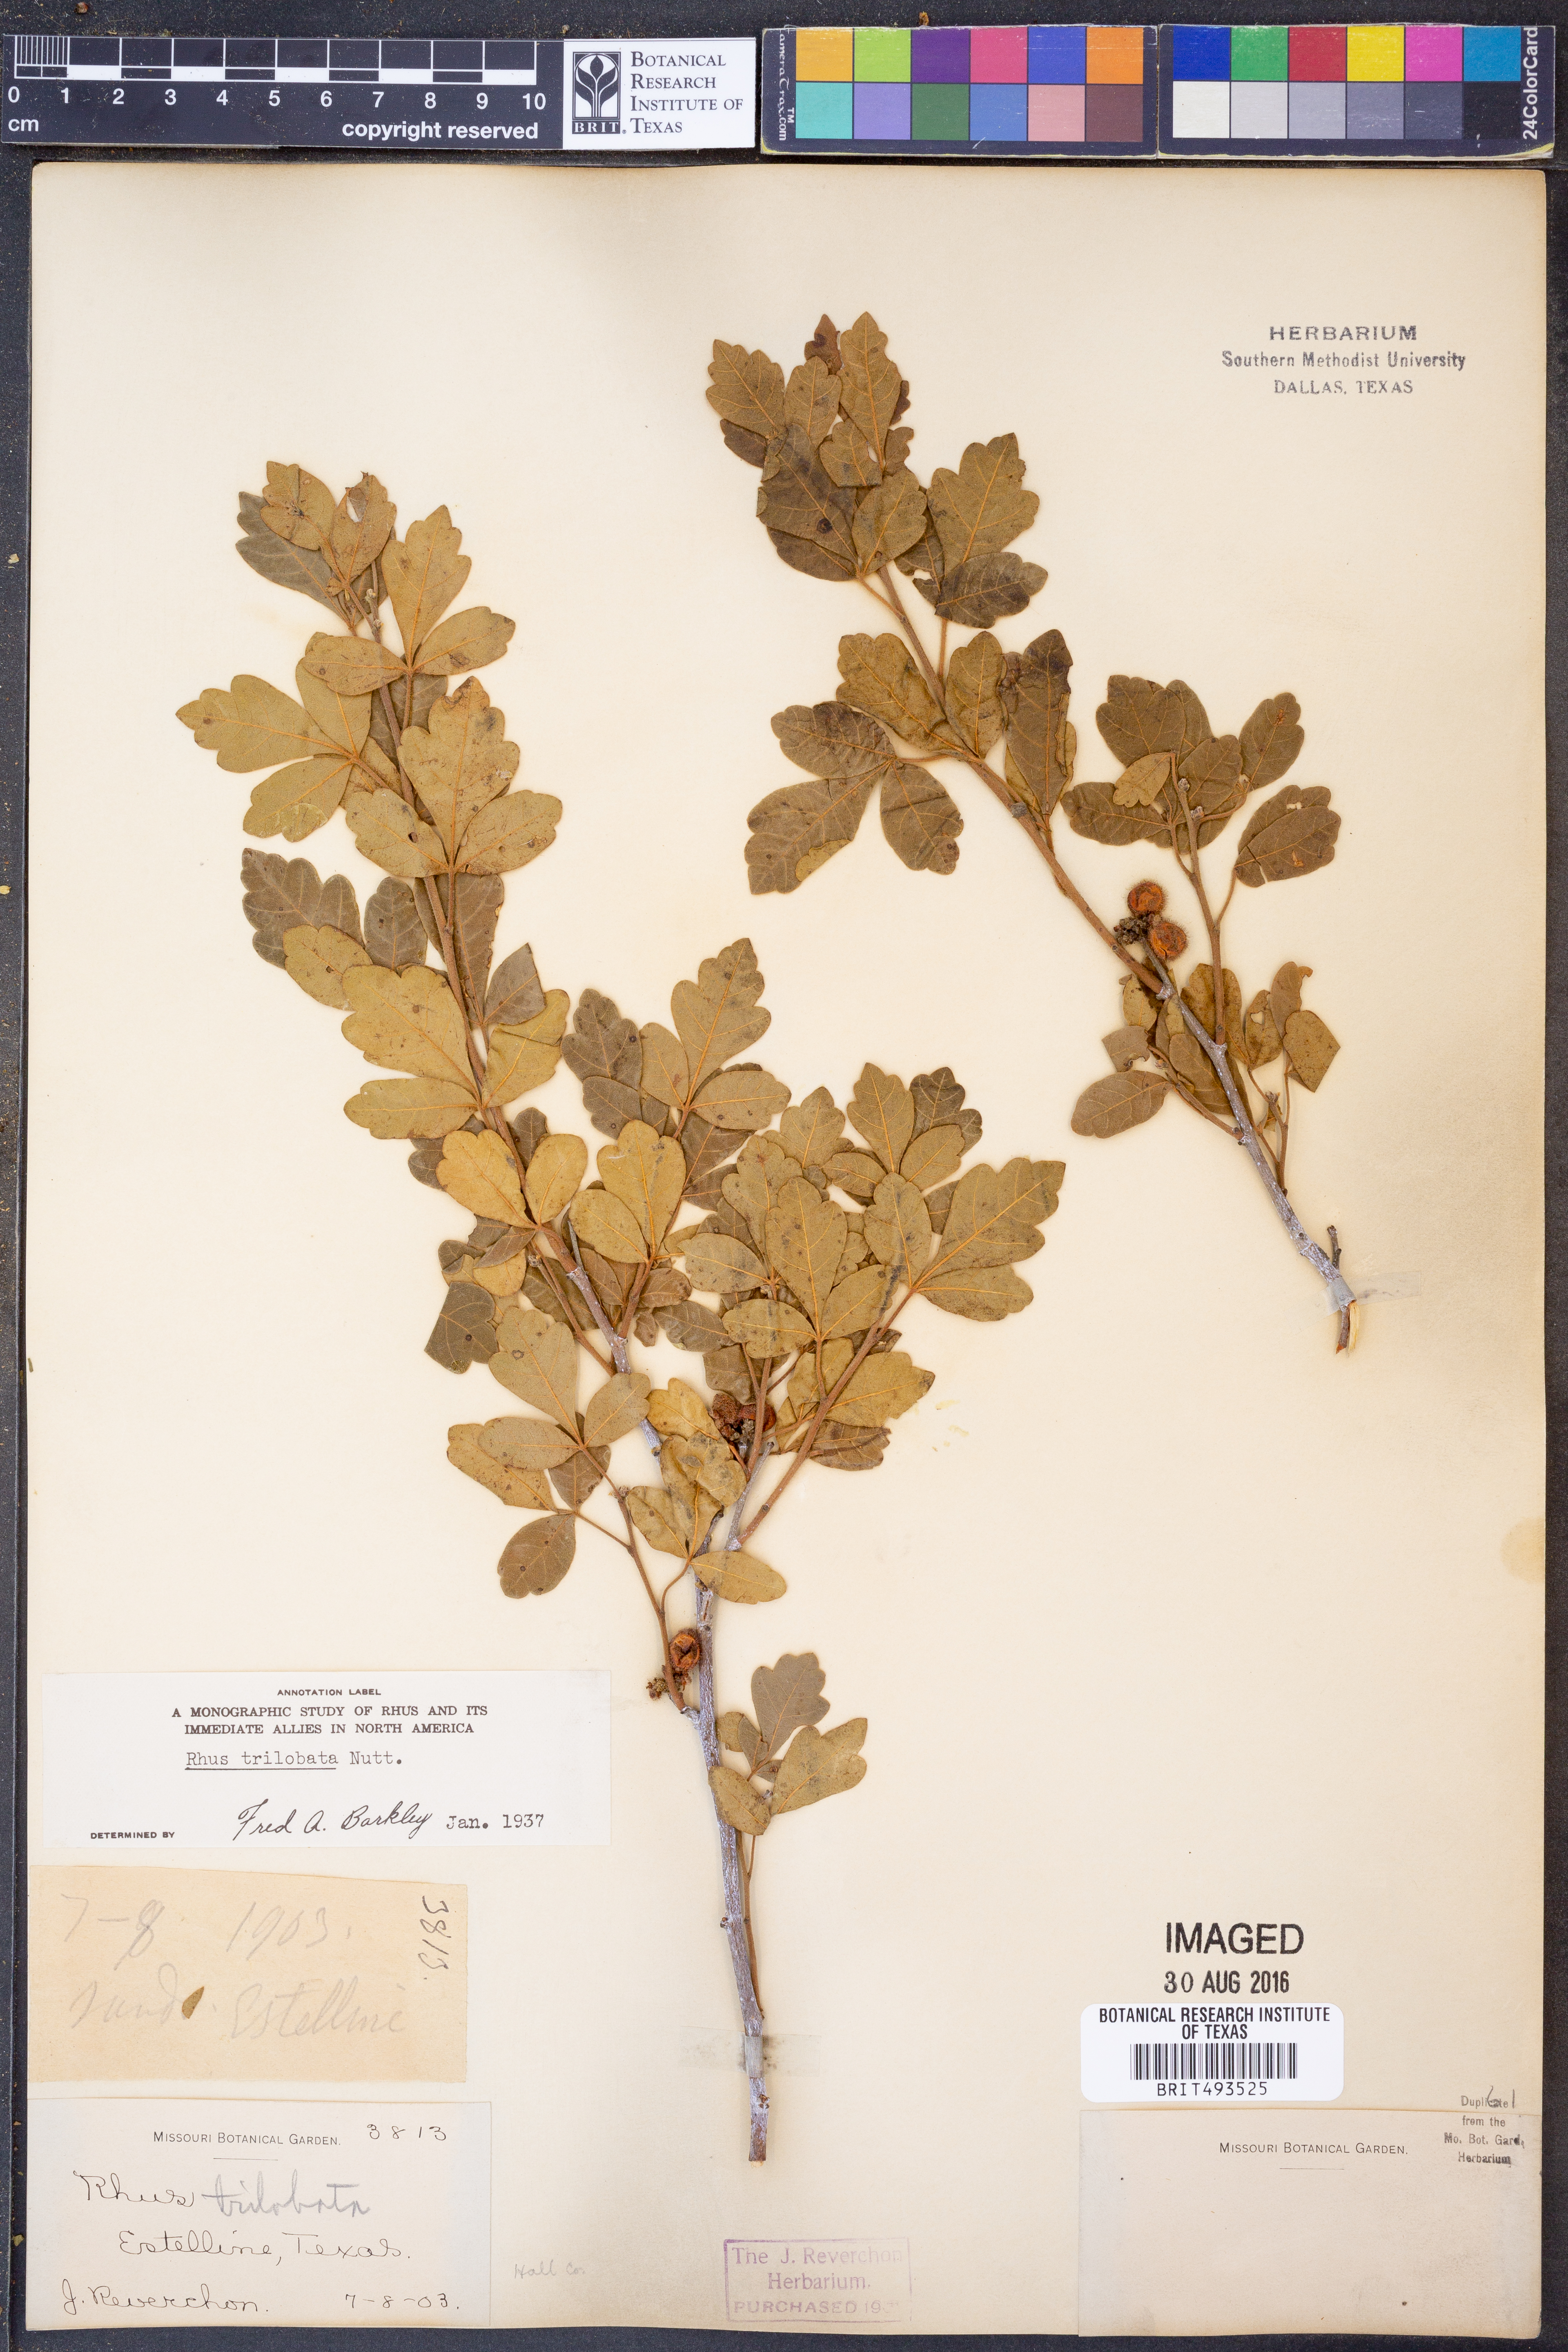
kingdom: Plantae
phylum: Tracheophyta
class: Magnoliopsida
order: Sapindales
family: Anacardiaceae
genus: Rhus
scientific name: Rhus trilobata
